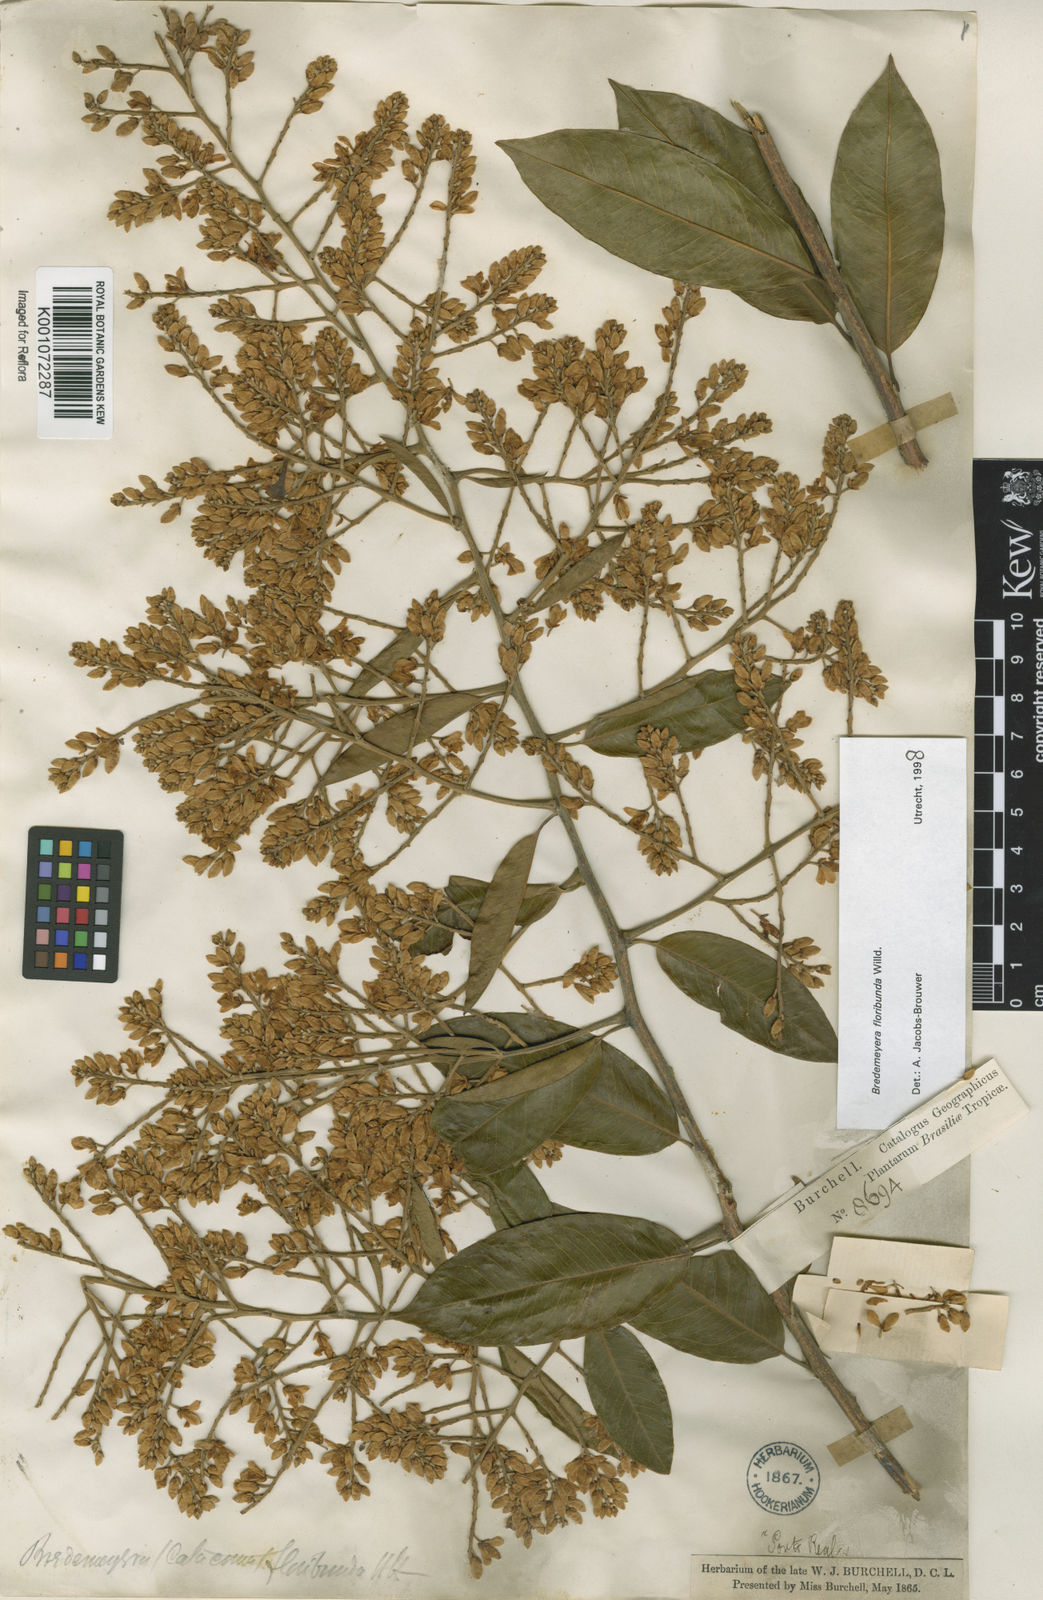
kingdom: Plantae
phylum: Tracheophyta
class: Magnoliopsida
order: Fabales
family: Polygalaceae
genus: Bredemeyera
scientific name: Bredemeyera floribunda
